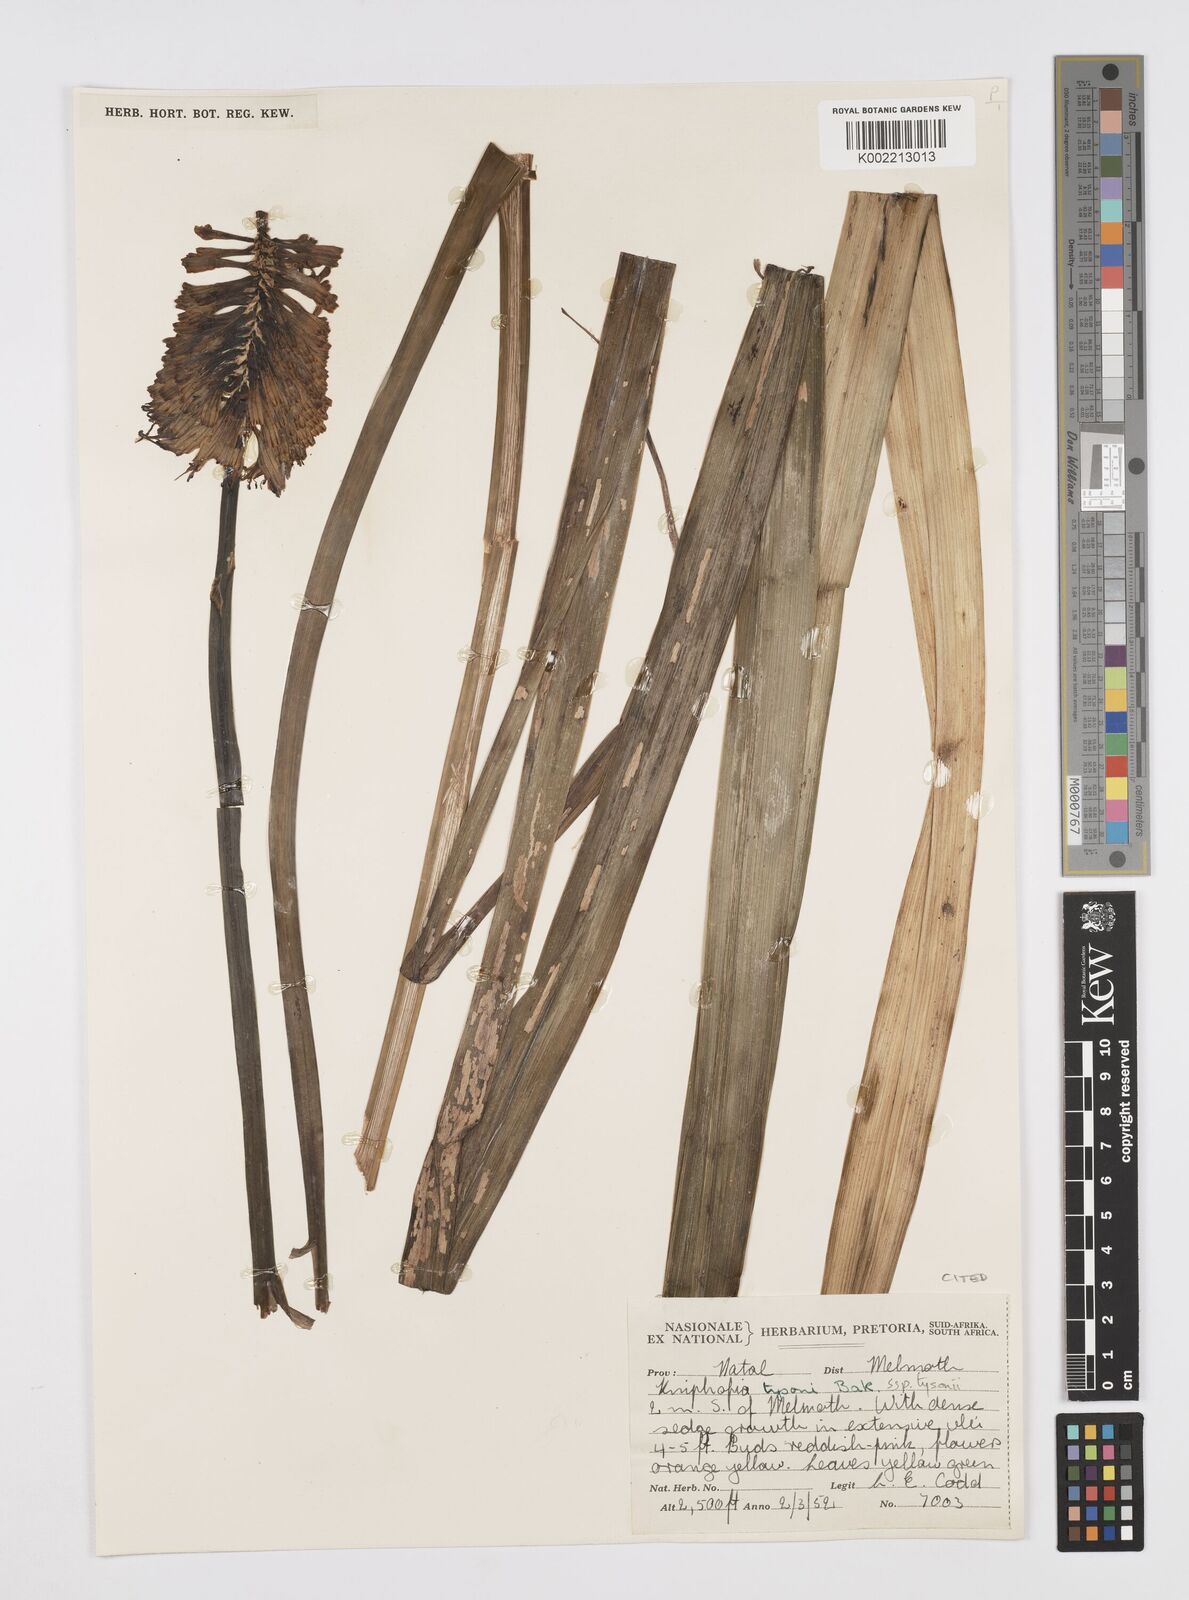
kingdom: Plantae
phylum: Tracheophyta
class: Liliopsida
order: Asparagales
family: Asphodelaceae
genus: Kniphofia
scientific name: Kniphofia tysonii
